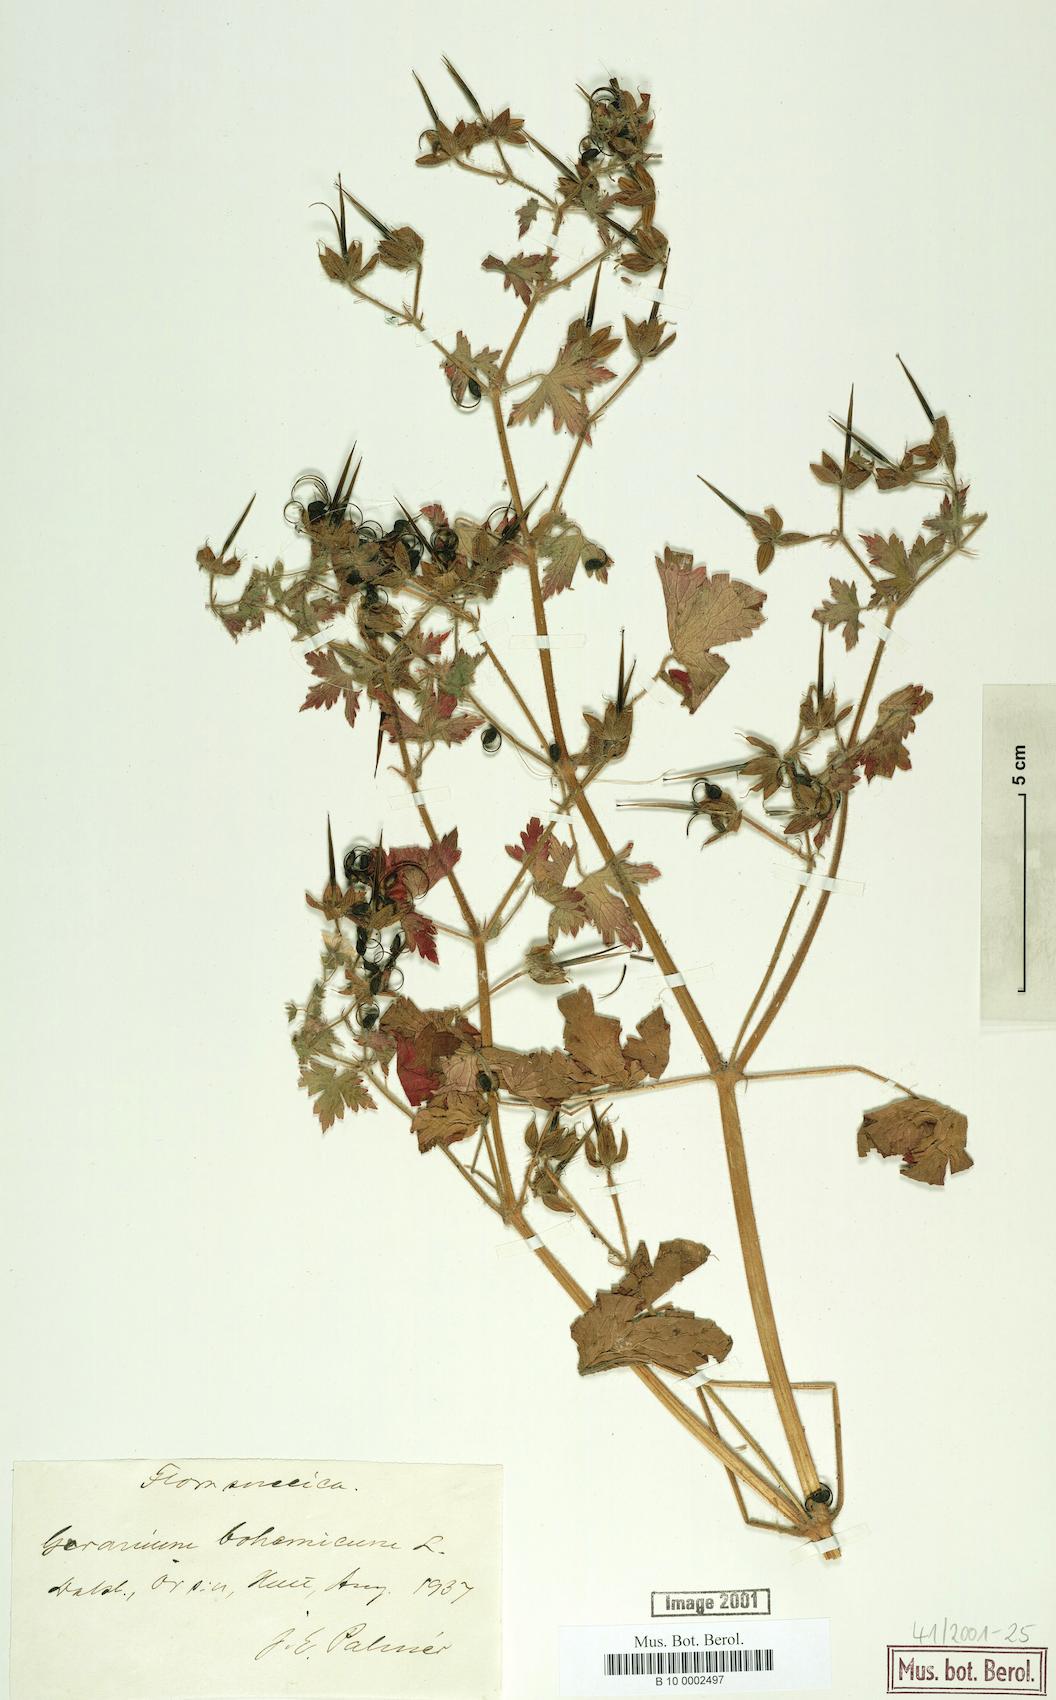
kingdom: Plantae
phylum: Tracheophyta
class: Magnoliopsida
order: Geraniales
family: Geraniaceae
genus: Geranium
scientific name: Geranium bohemicum
